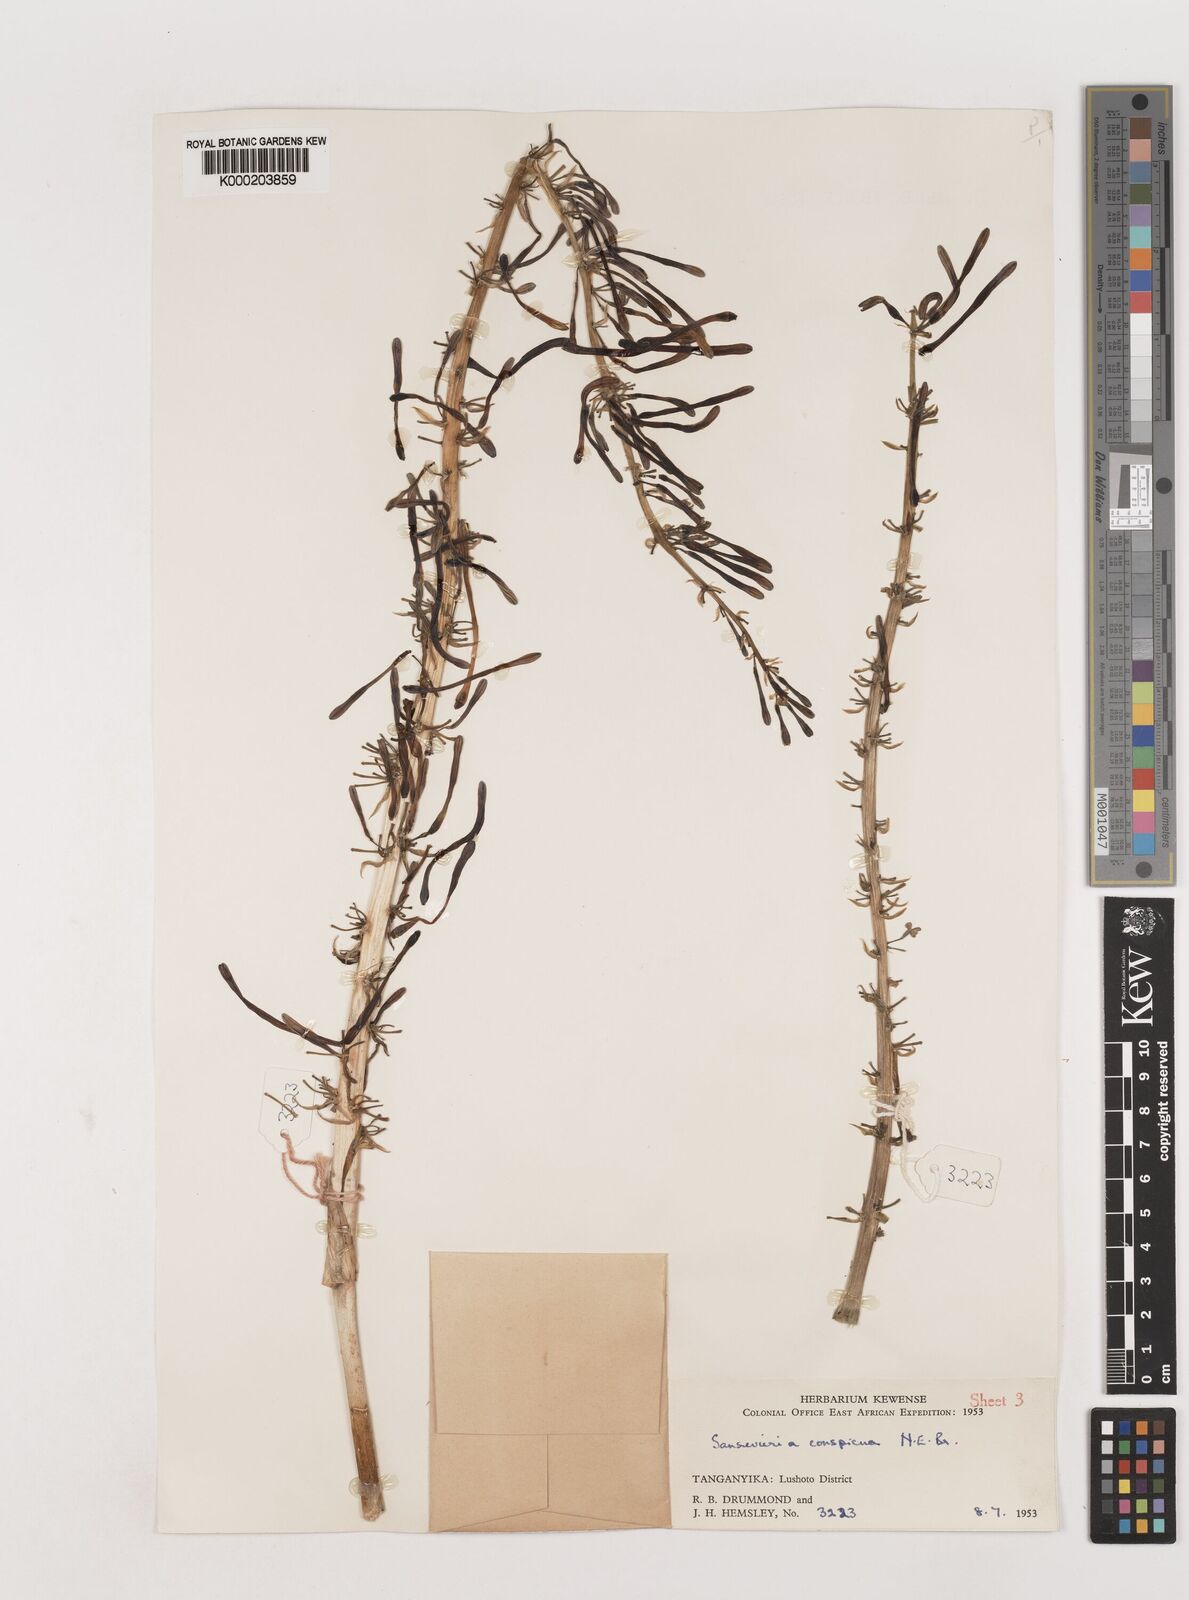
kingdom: Plantae
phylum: Tracheophyta
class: Liliopsida
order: Asparagales
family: Asparagaceae
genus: Dracaena
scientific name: Dracaena conspicua
